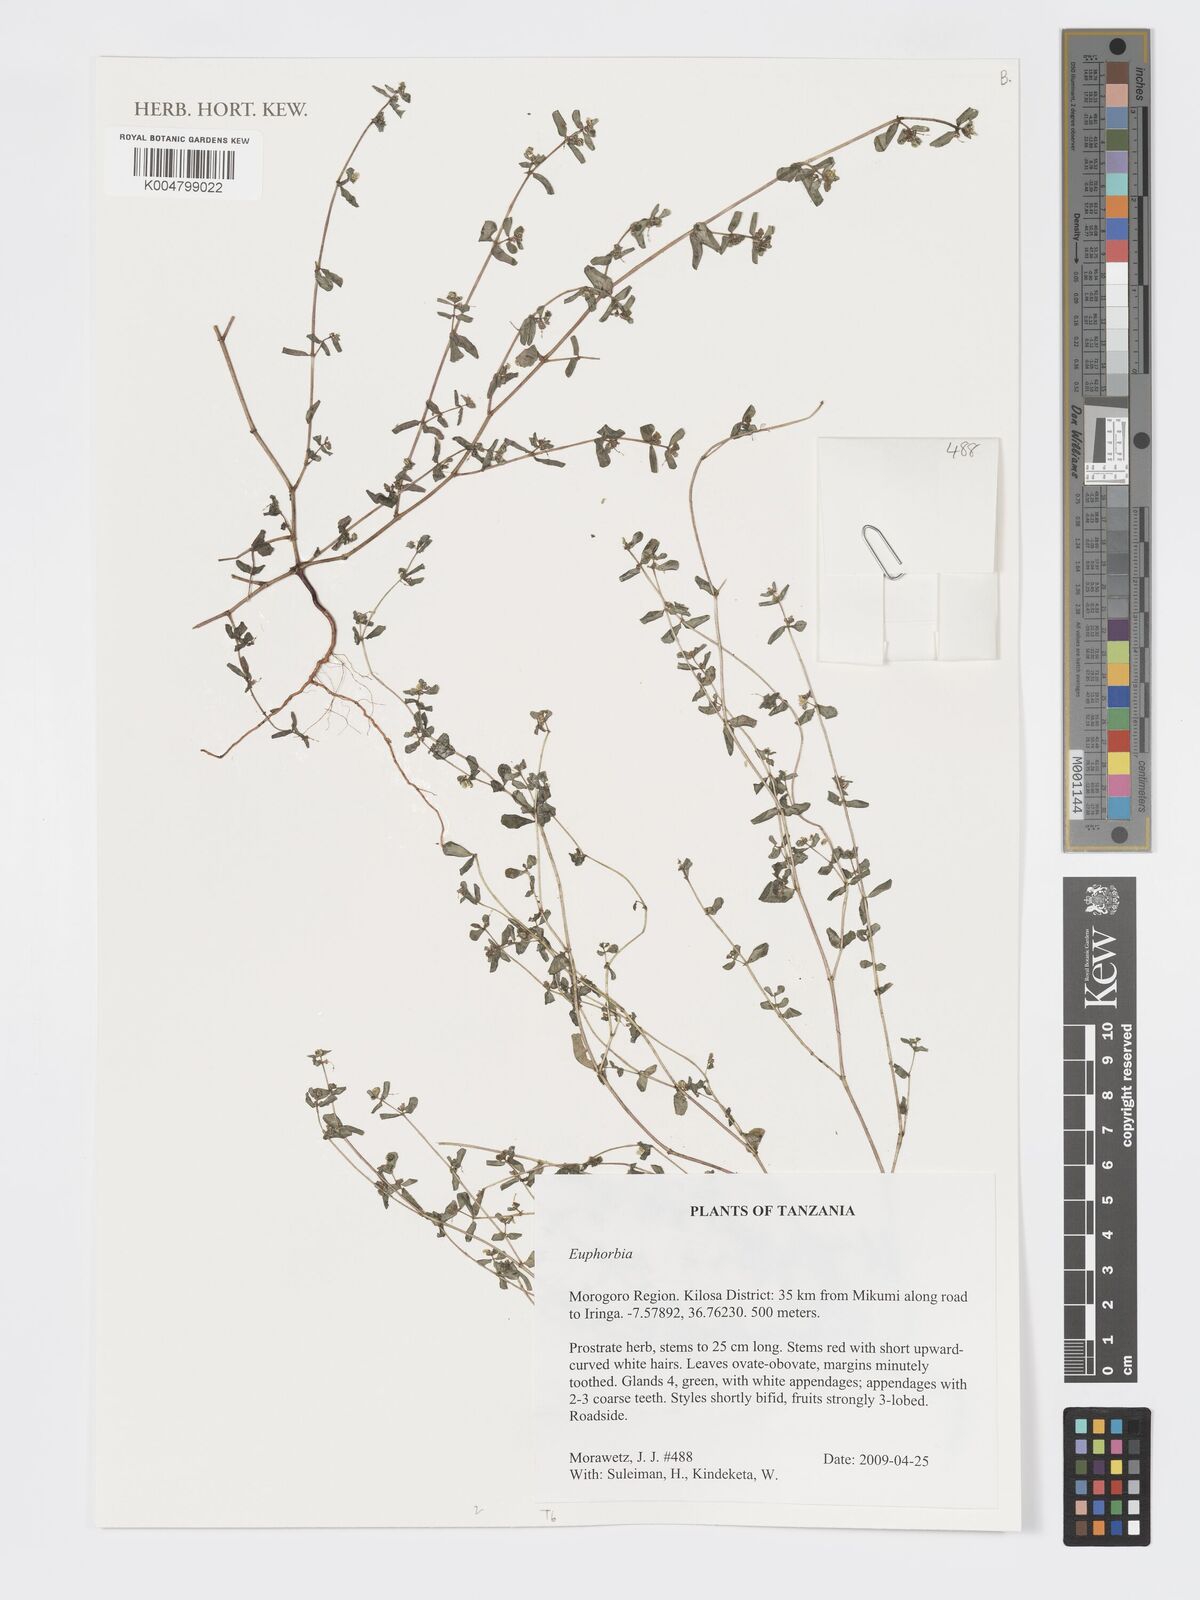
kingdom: Plantae
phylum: Tracheophyta
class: Magnoliopsida
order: Malpighiales
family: Euphorbiaceae
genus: Euphorbia
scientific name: Euphorbia
